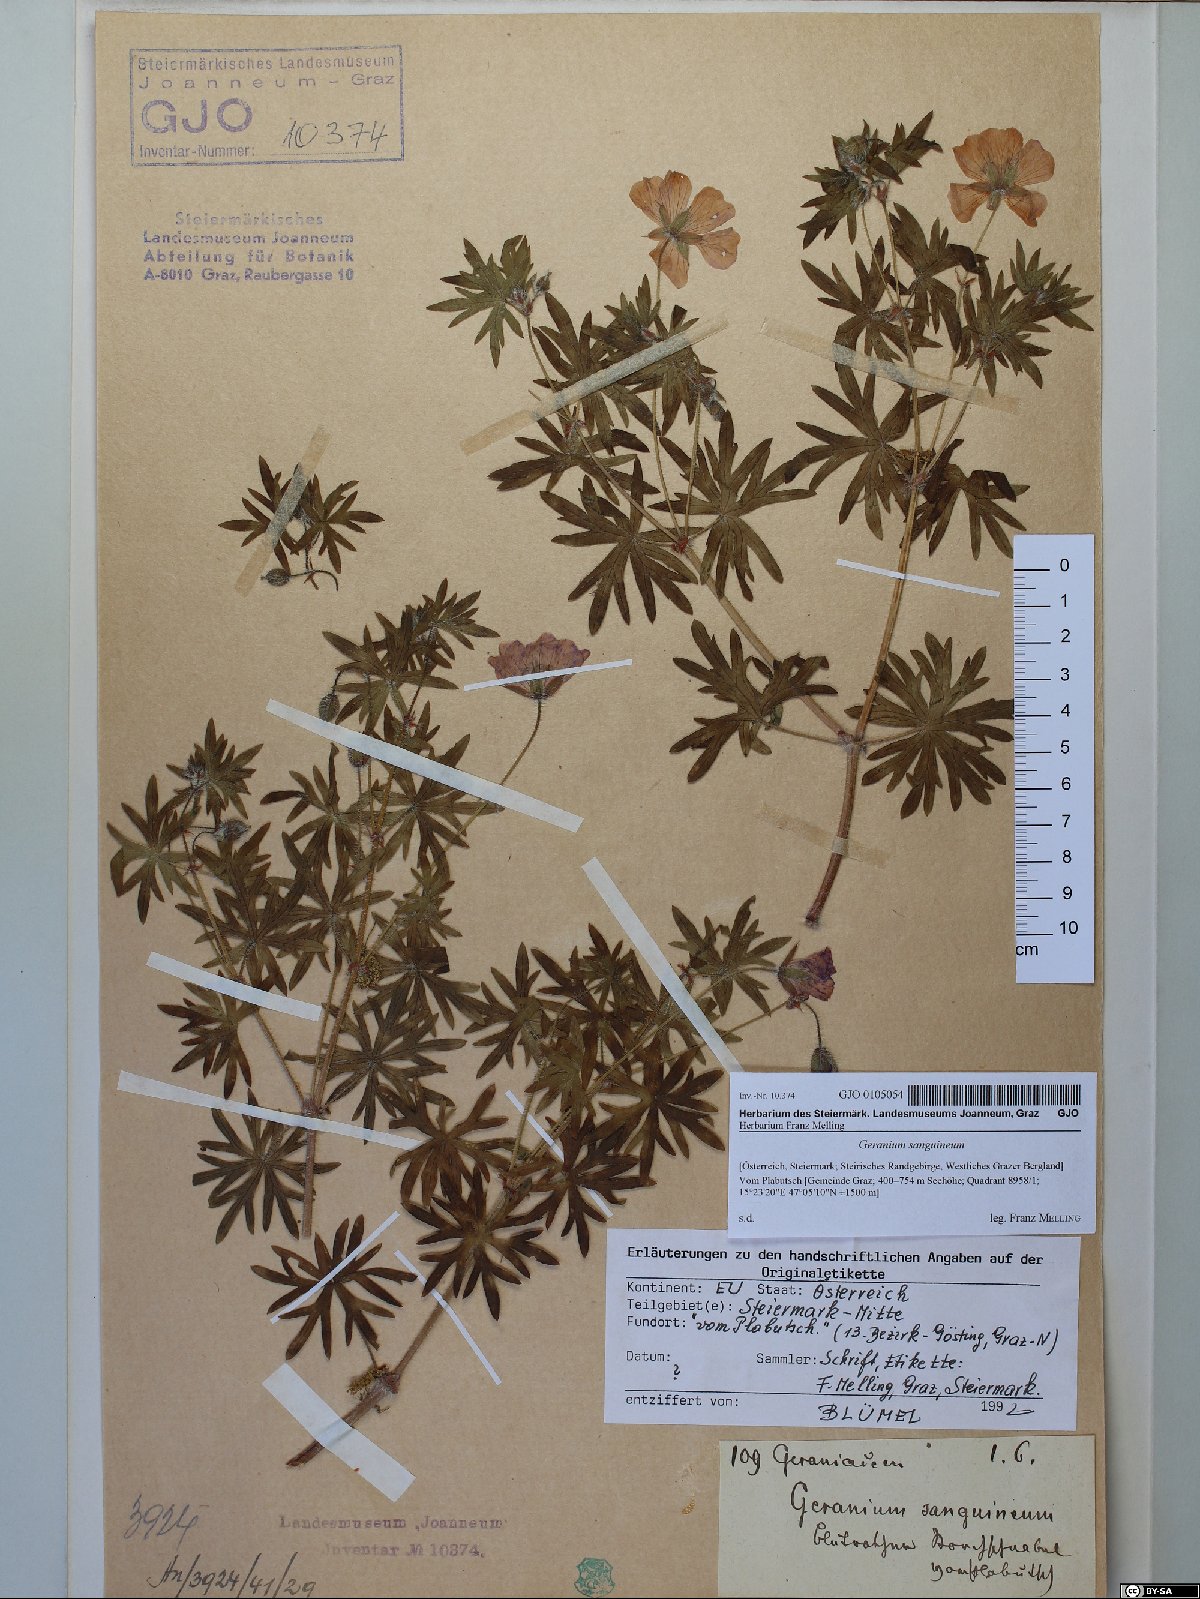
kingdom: Plantae
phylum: Tracheophyta
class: Magnoliopsida
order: Geraniales
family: Geraniaceae
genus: Geranium
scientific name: Geranium sanguineum
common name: Bloody crane's-bill
